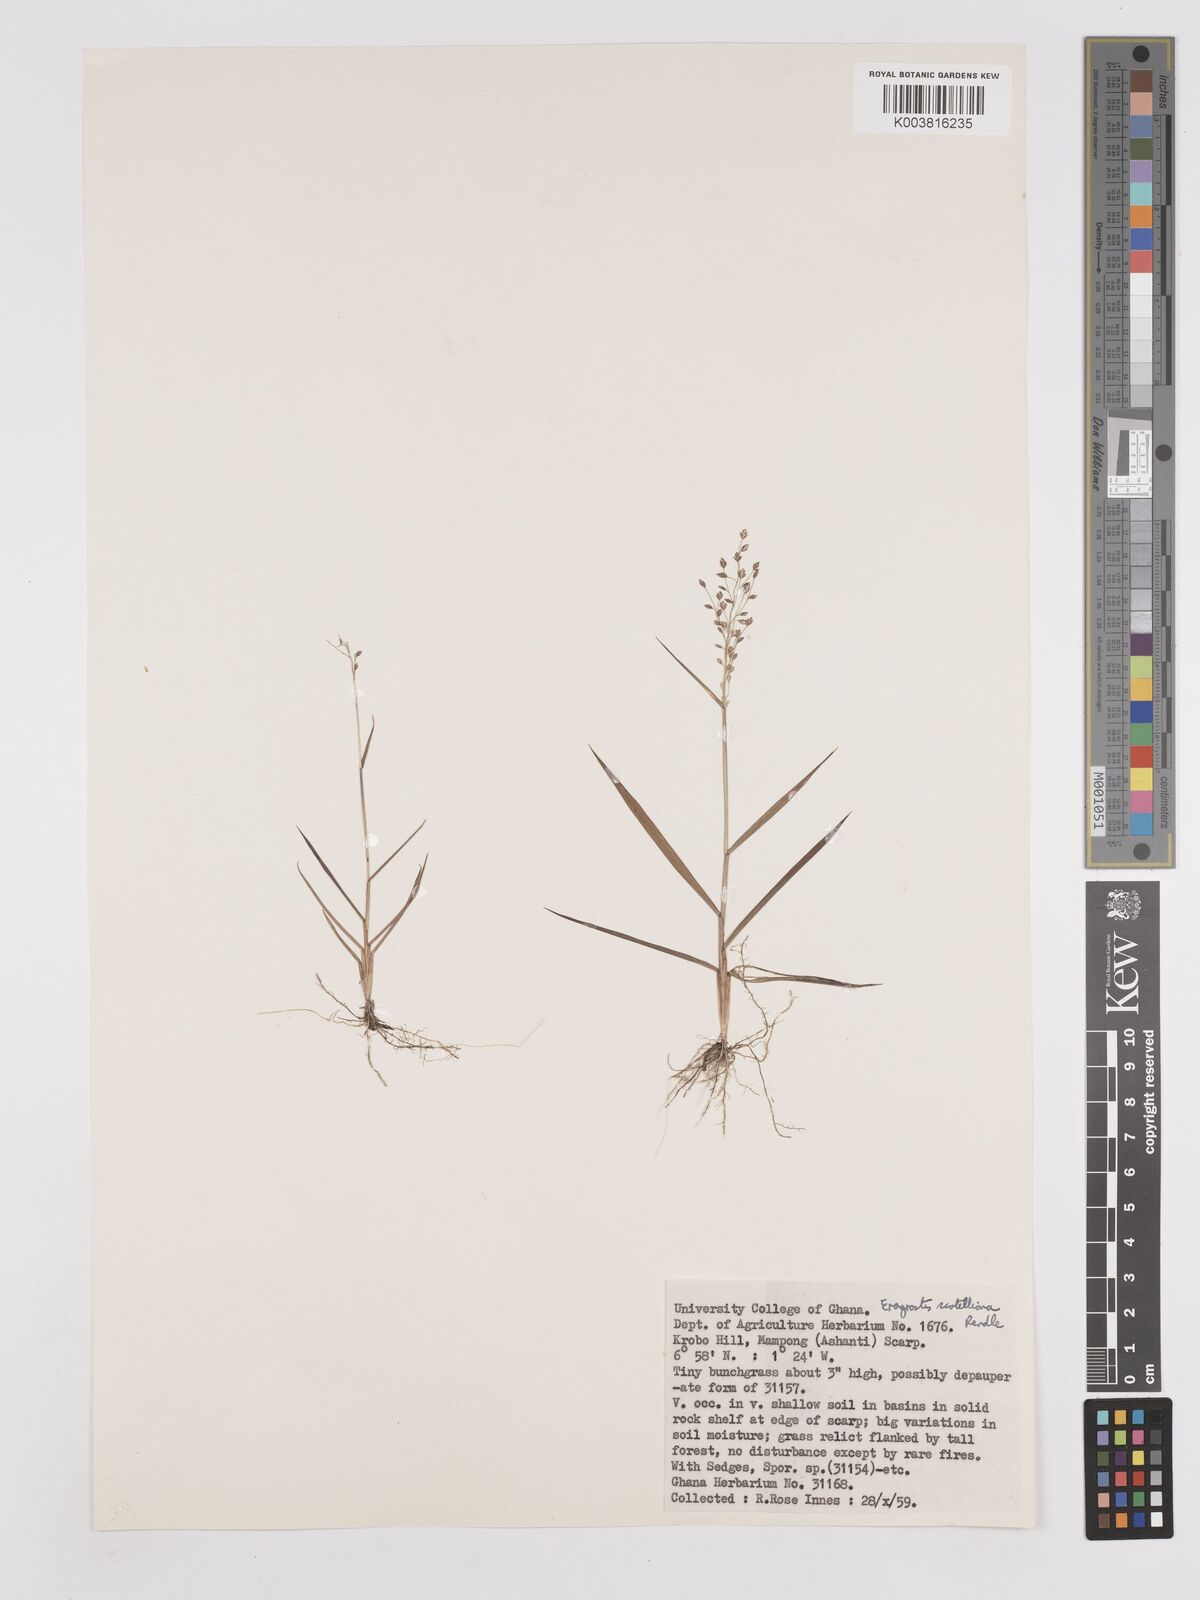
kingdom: Plantae
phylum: Tracheophyta
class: Liliopsida
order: Poales
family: Poaceae
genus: Eragrostis
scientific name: Eragrostis scotelliana
